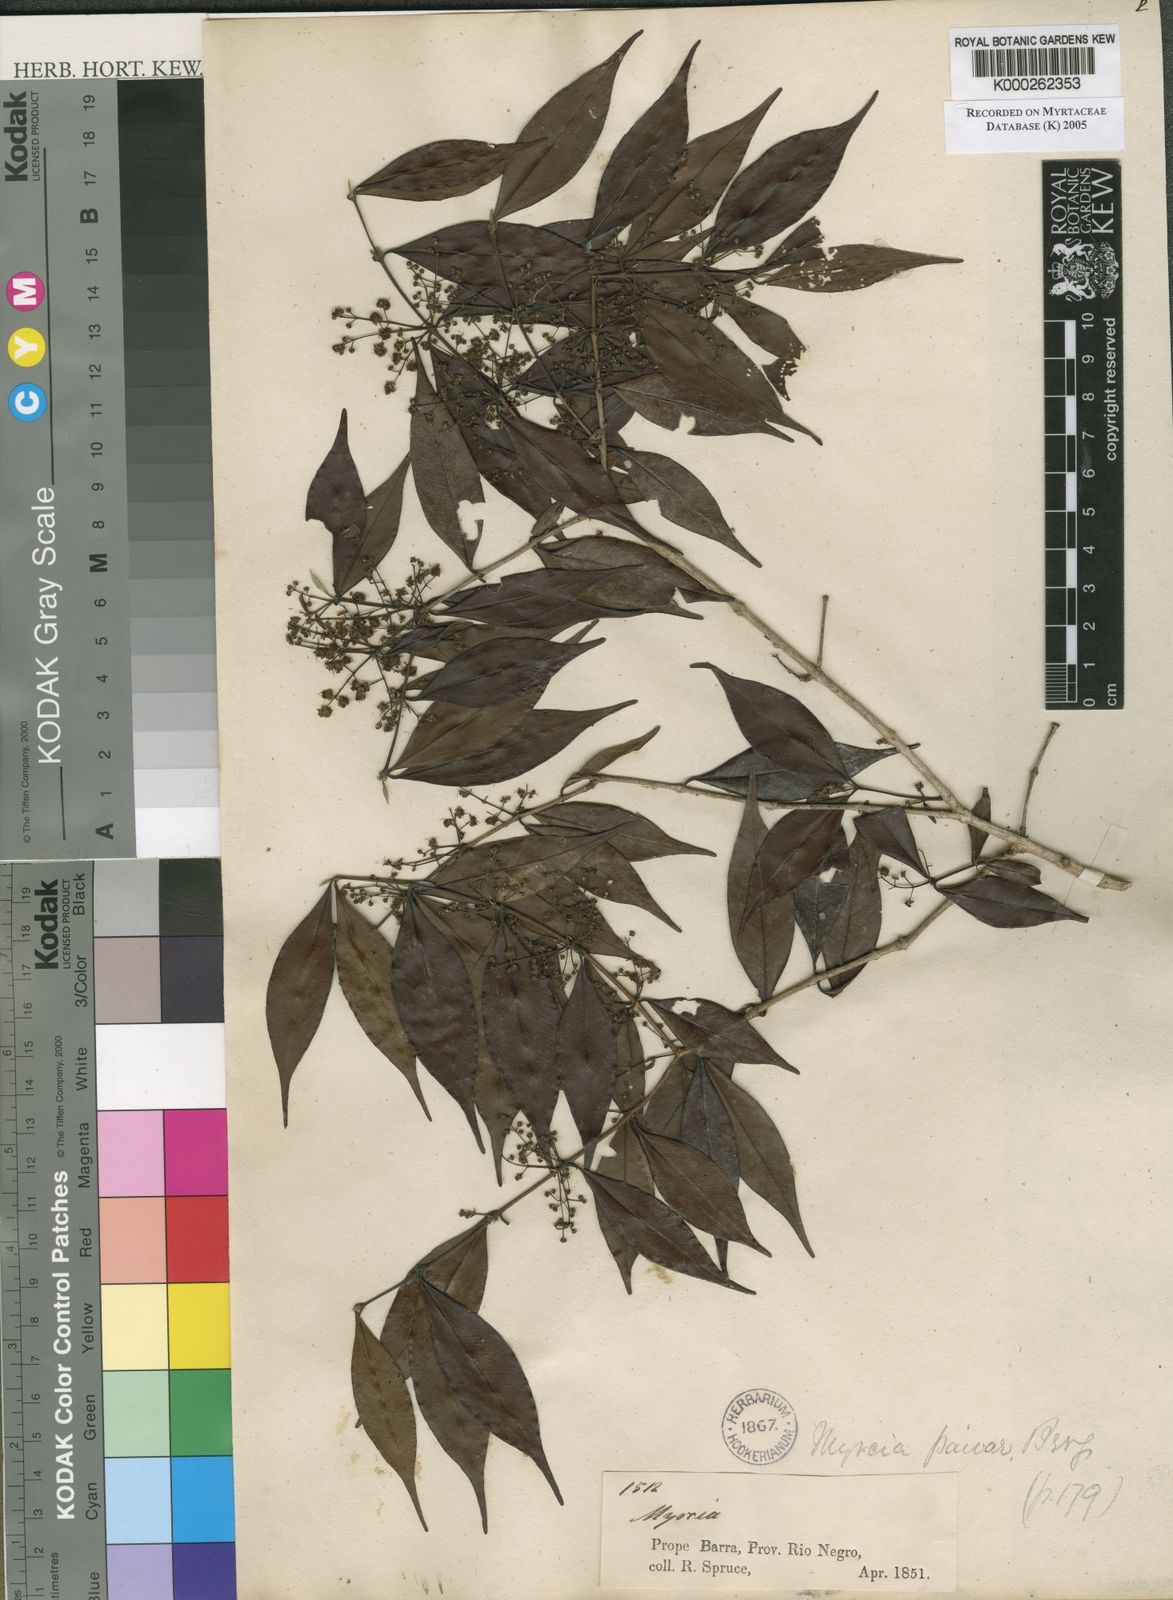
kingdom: Plantae
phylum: Tracheophyta
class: Magnoliopsida
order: Myrtales
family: Myrtaceae
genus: Myrcia
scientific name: Myrcia paivae
